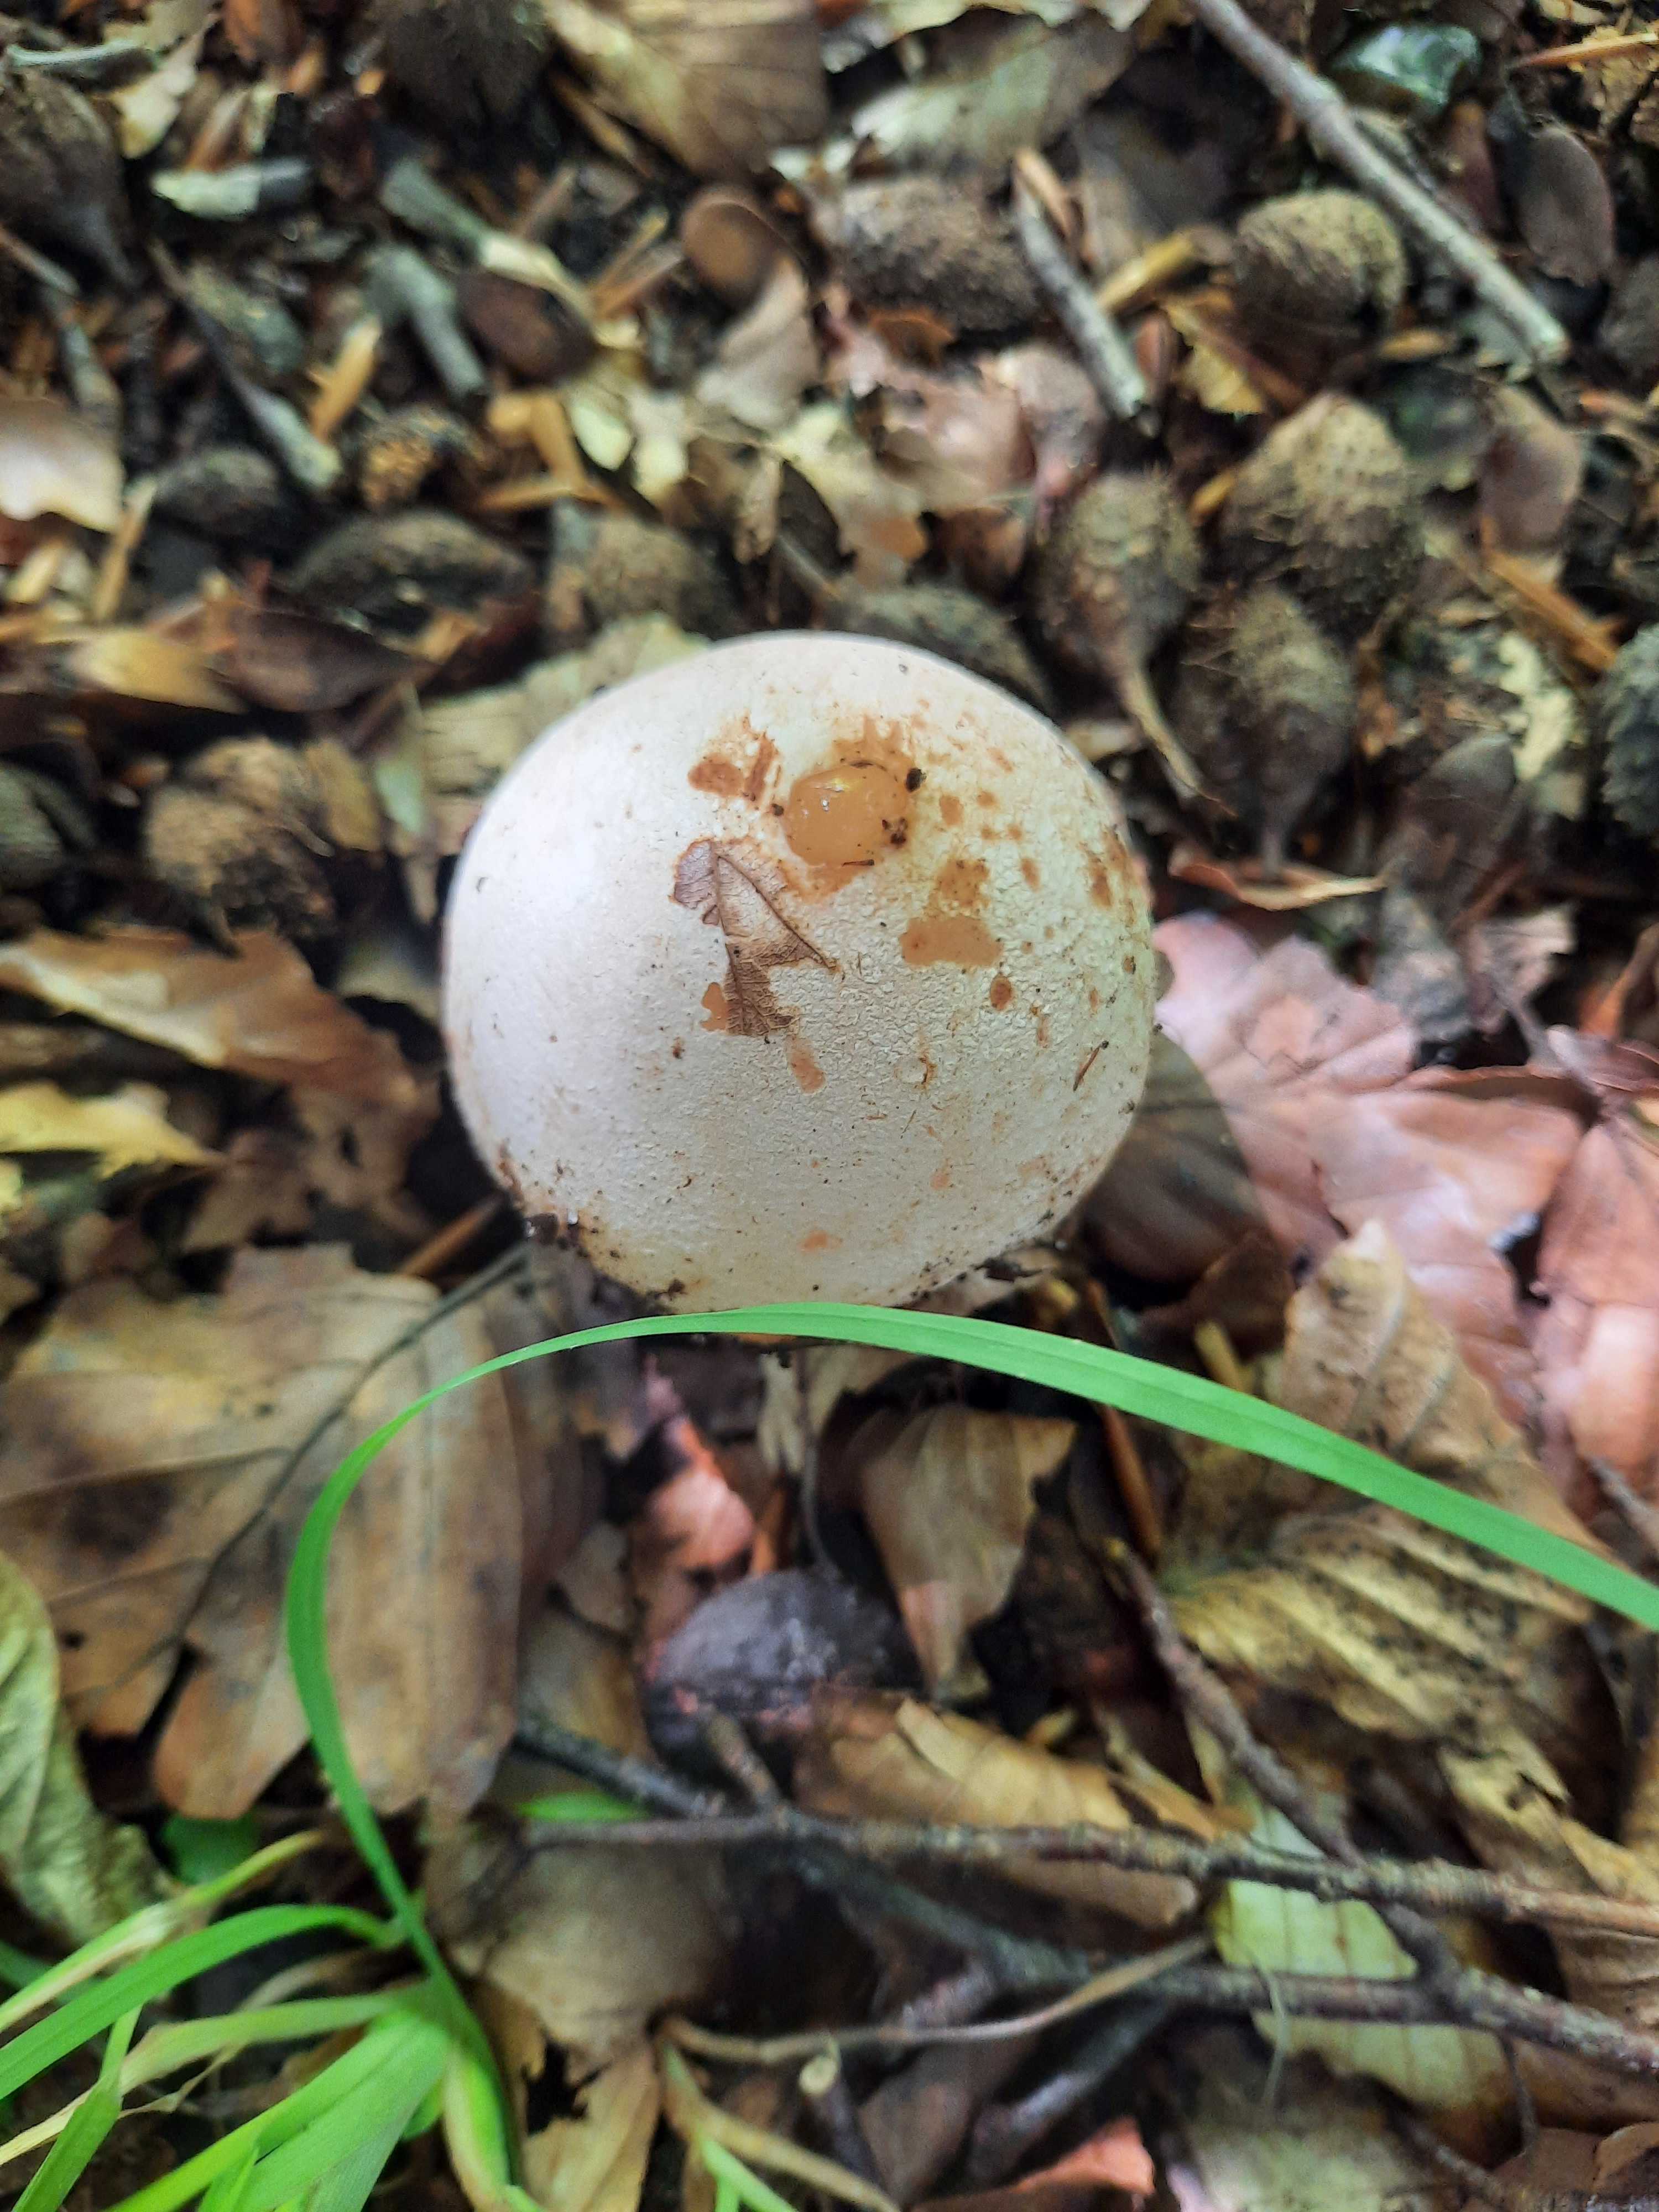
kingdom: Fungi
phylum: Basidiomycota
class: Agaricomycetes
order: Phallales
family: Phallaceae
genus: Phallus
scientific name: Phallus impudicus
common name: almindelig stinksvamp
